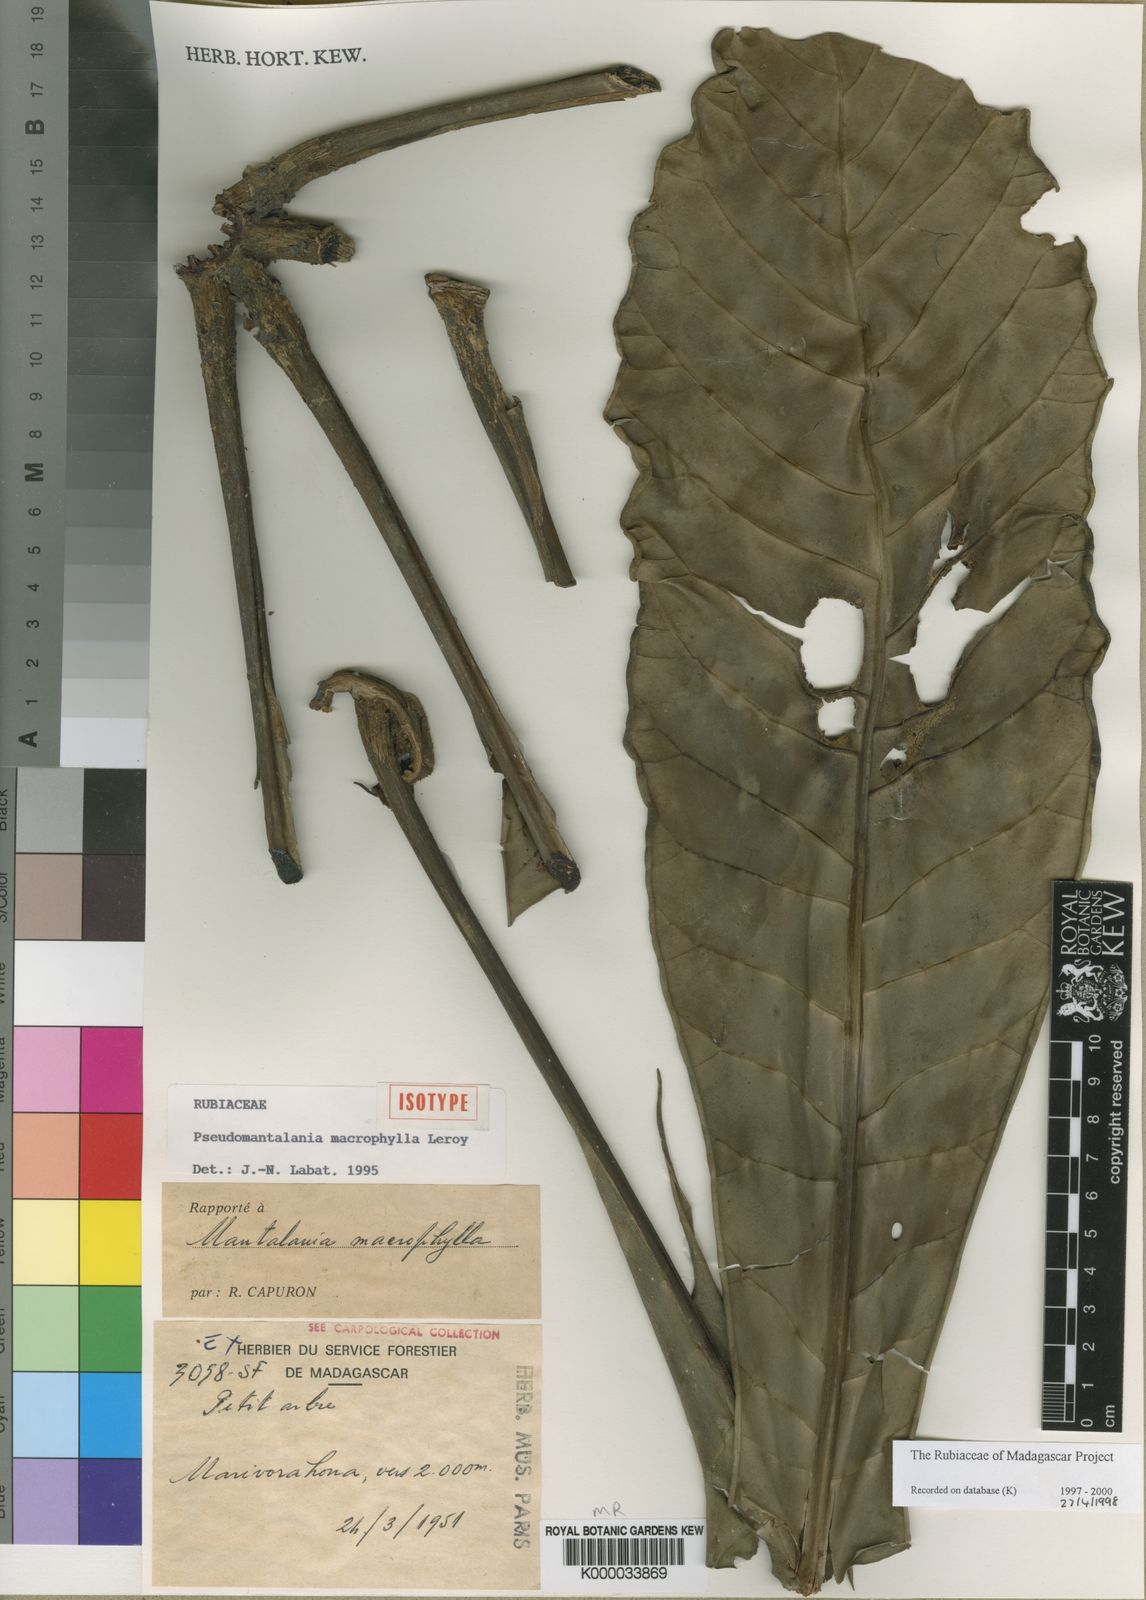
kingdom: Plantae
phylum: Tracheophyta
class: Magnoliopsida
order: Gentianales
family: Rubiaceae
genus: Pseudomantalania
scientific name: Pseudomantalania macrophylla
